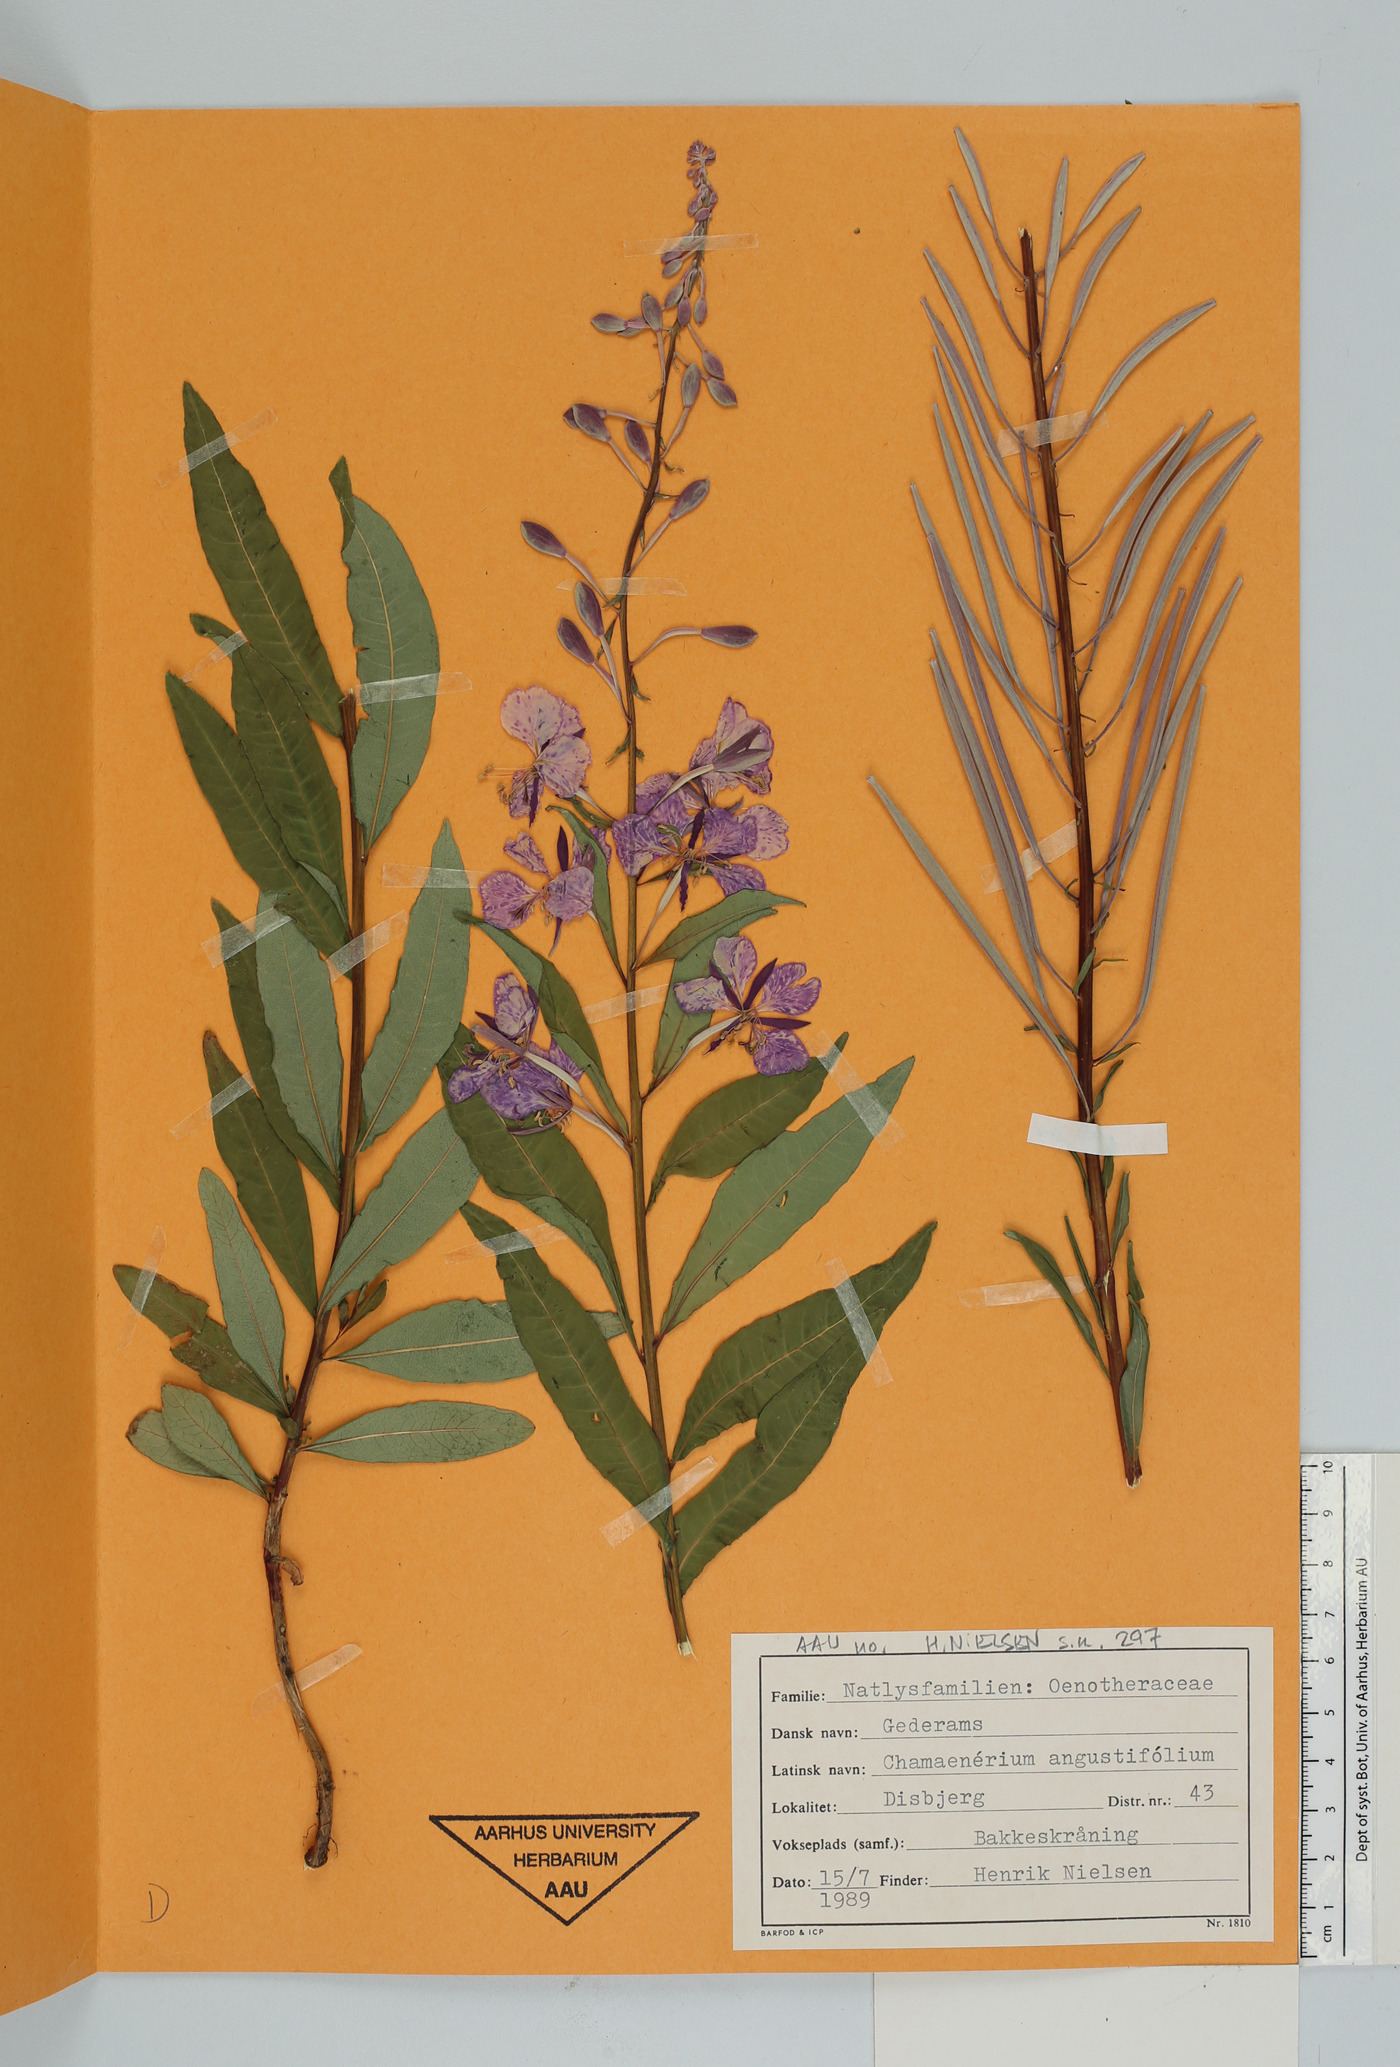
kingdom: Plantae
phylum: Tracheophyta
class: Magnoliopsida
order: Myrtales
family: Onagraceae
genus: Chamaenerion
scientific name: Chamaenerion angustifolium
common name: Fireweed
